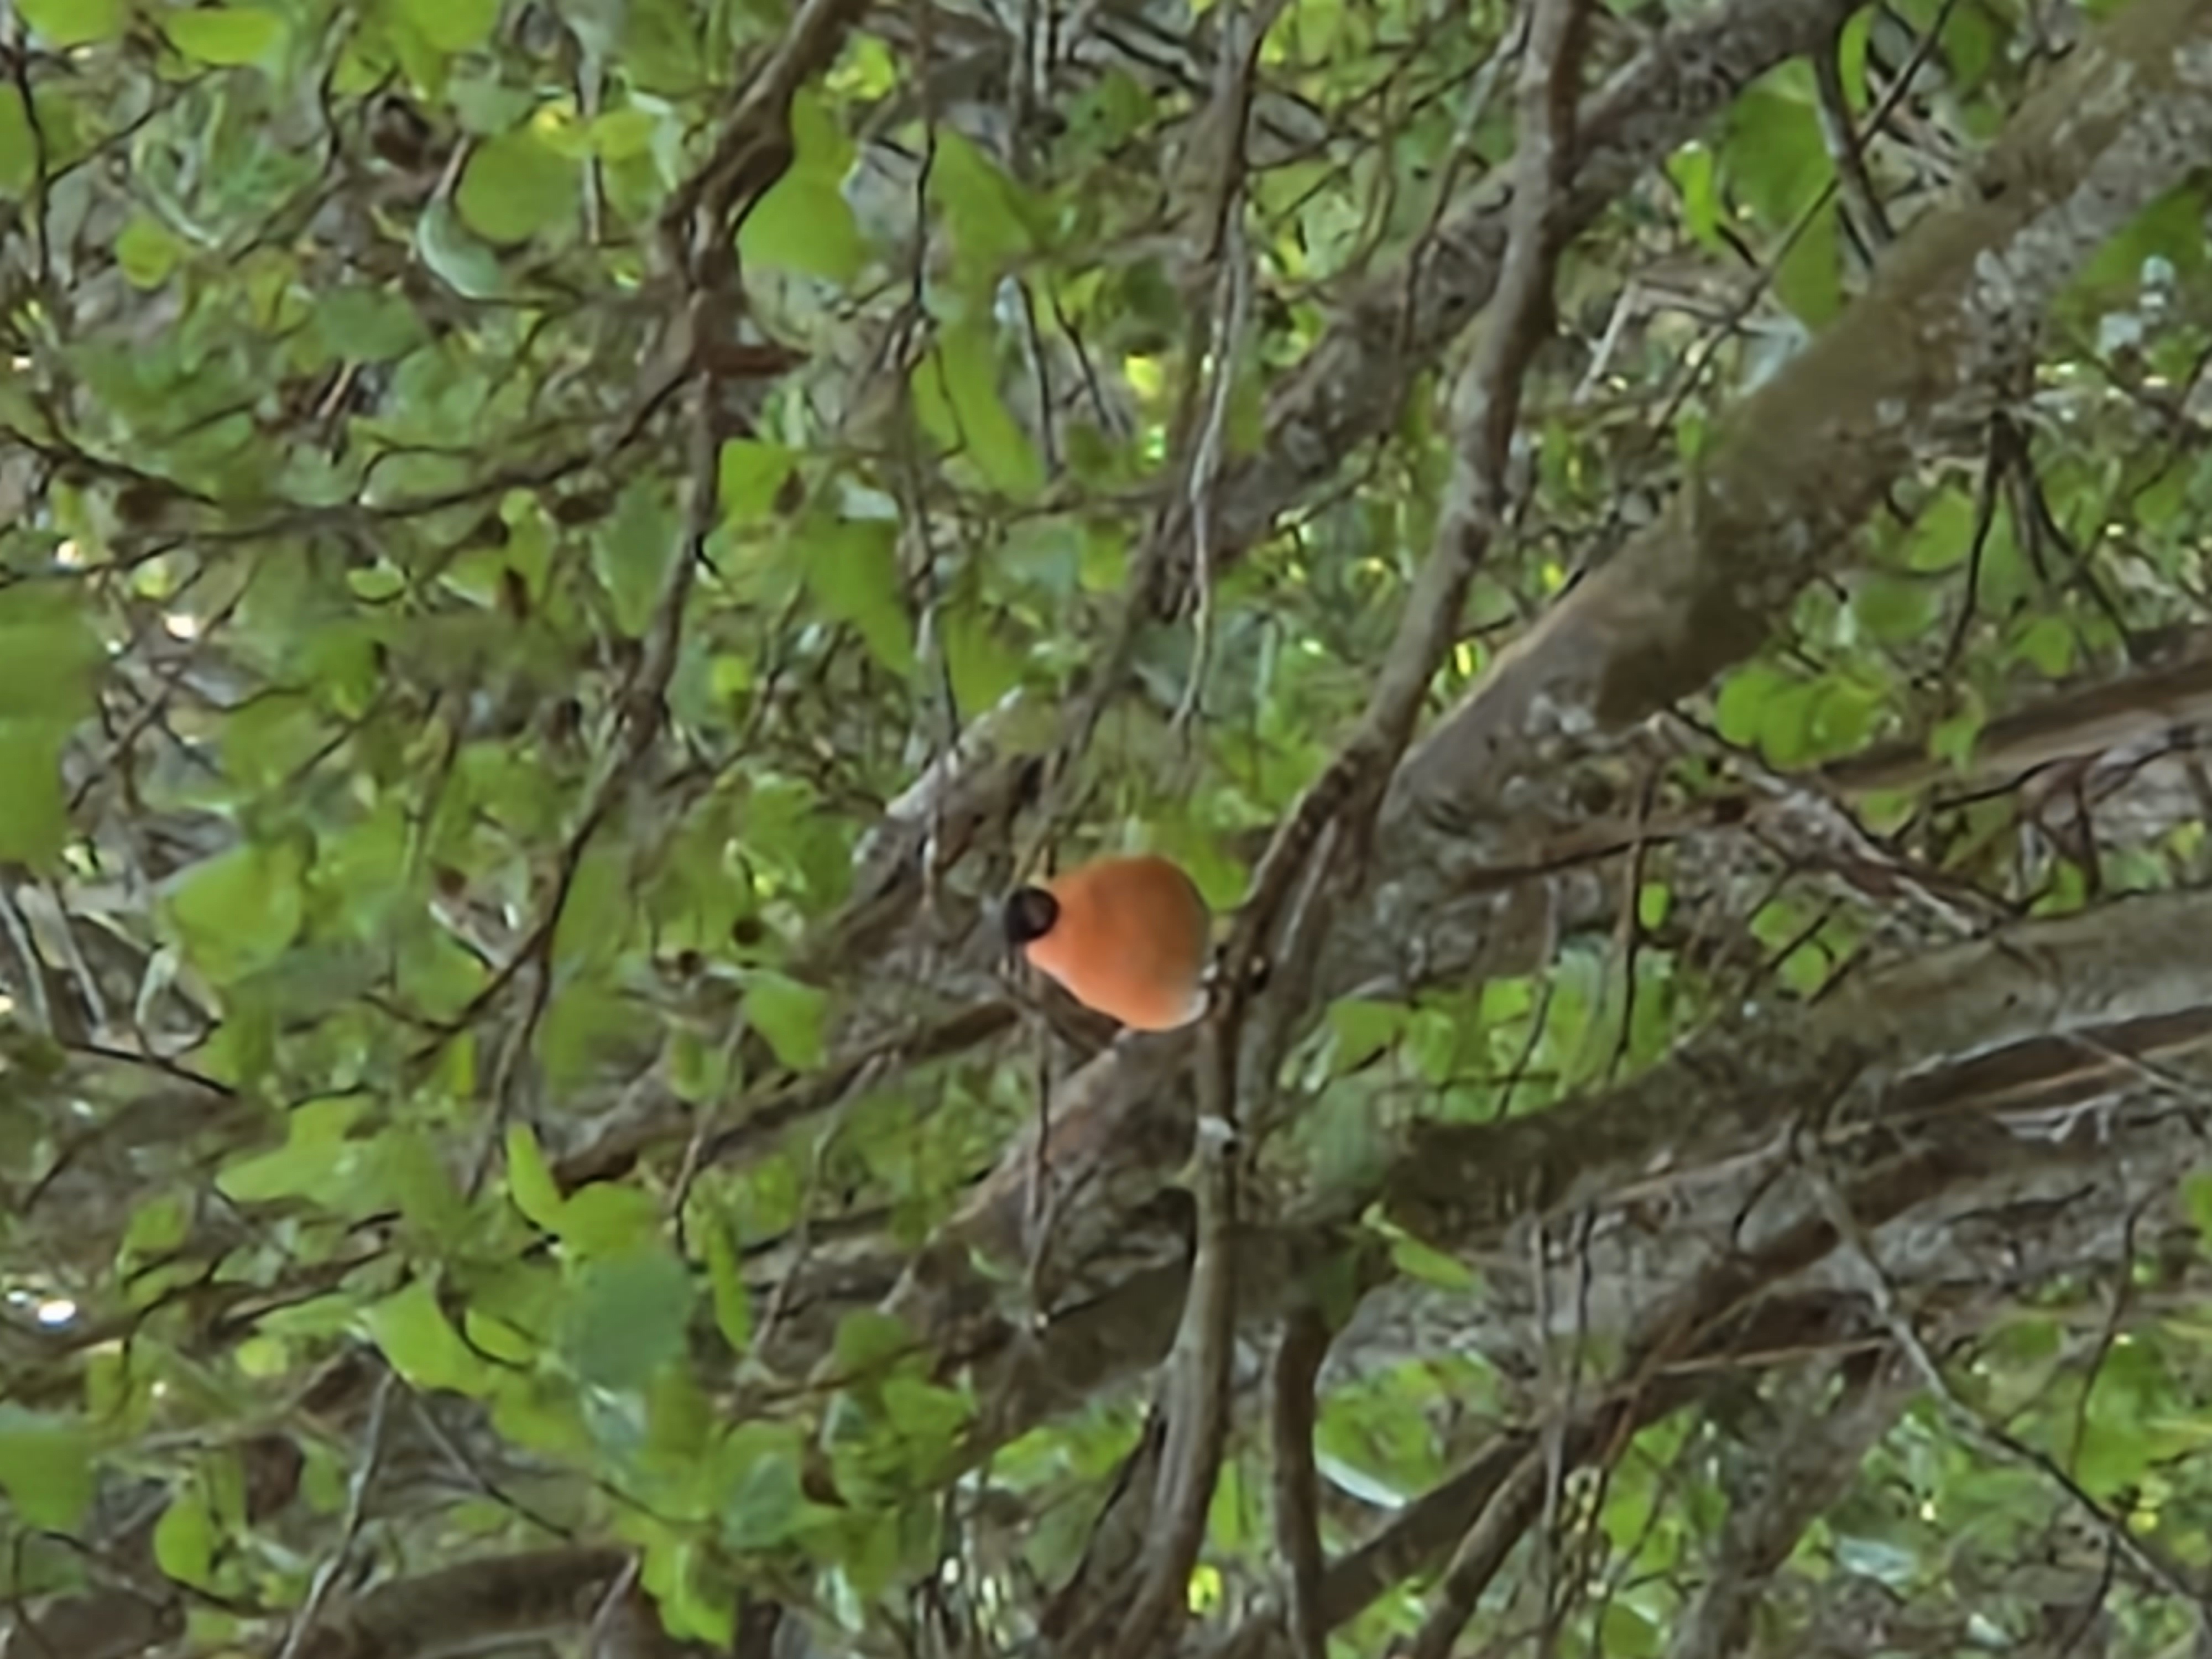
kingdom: Animalia
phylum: Chordata
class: Aves
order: Passeriformes
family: Fringillidae
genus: Pyrrhula
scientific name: Pyrrhula pyrrhula
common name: Dompap
